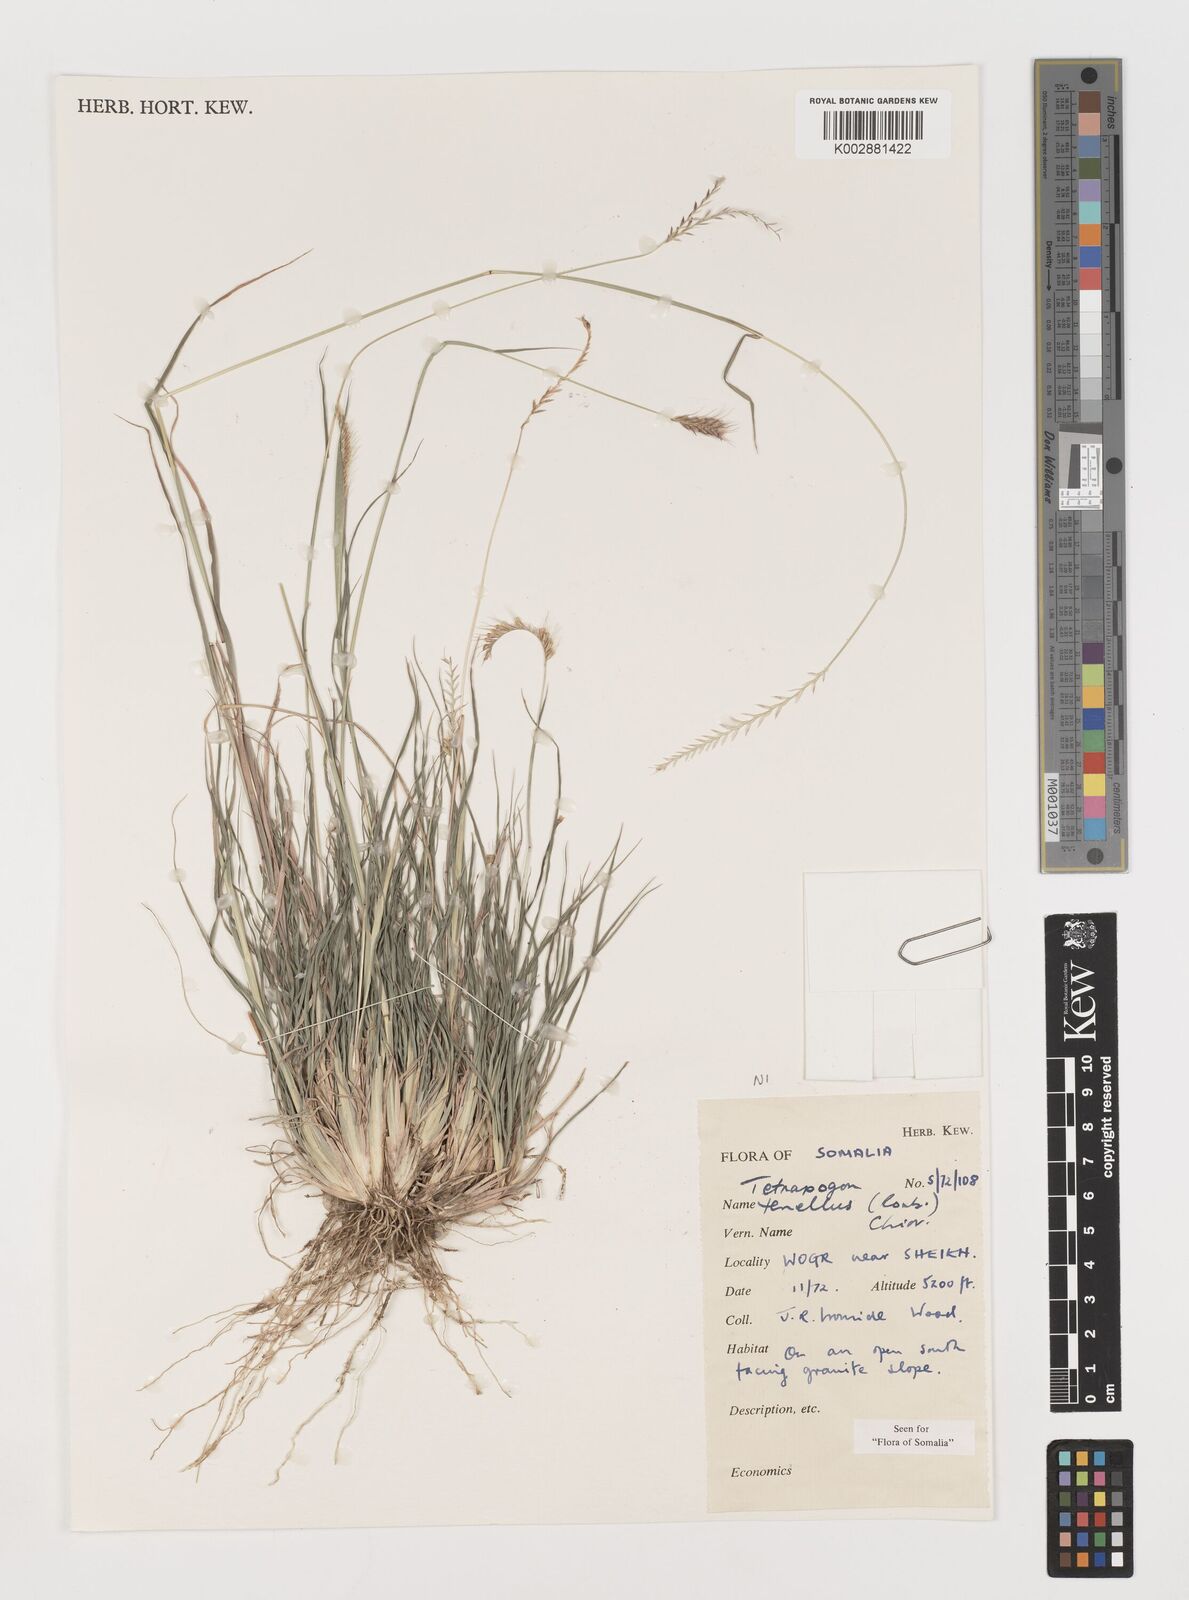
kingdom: Plantae
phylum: Tracheophyta
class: Liliopsida
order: Poales
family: Poaceae
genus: Tetrapogon
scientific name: Tetrapogon tenellus
